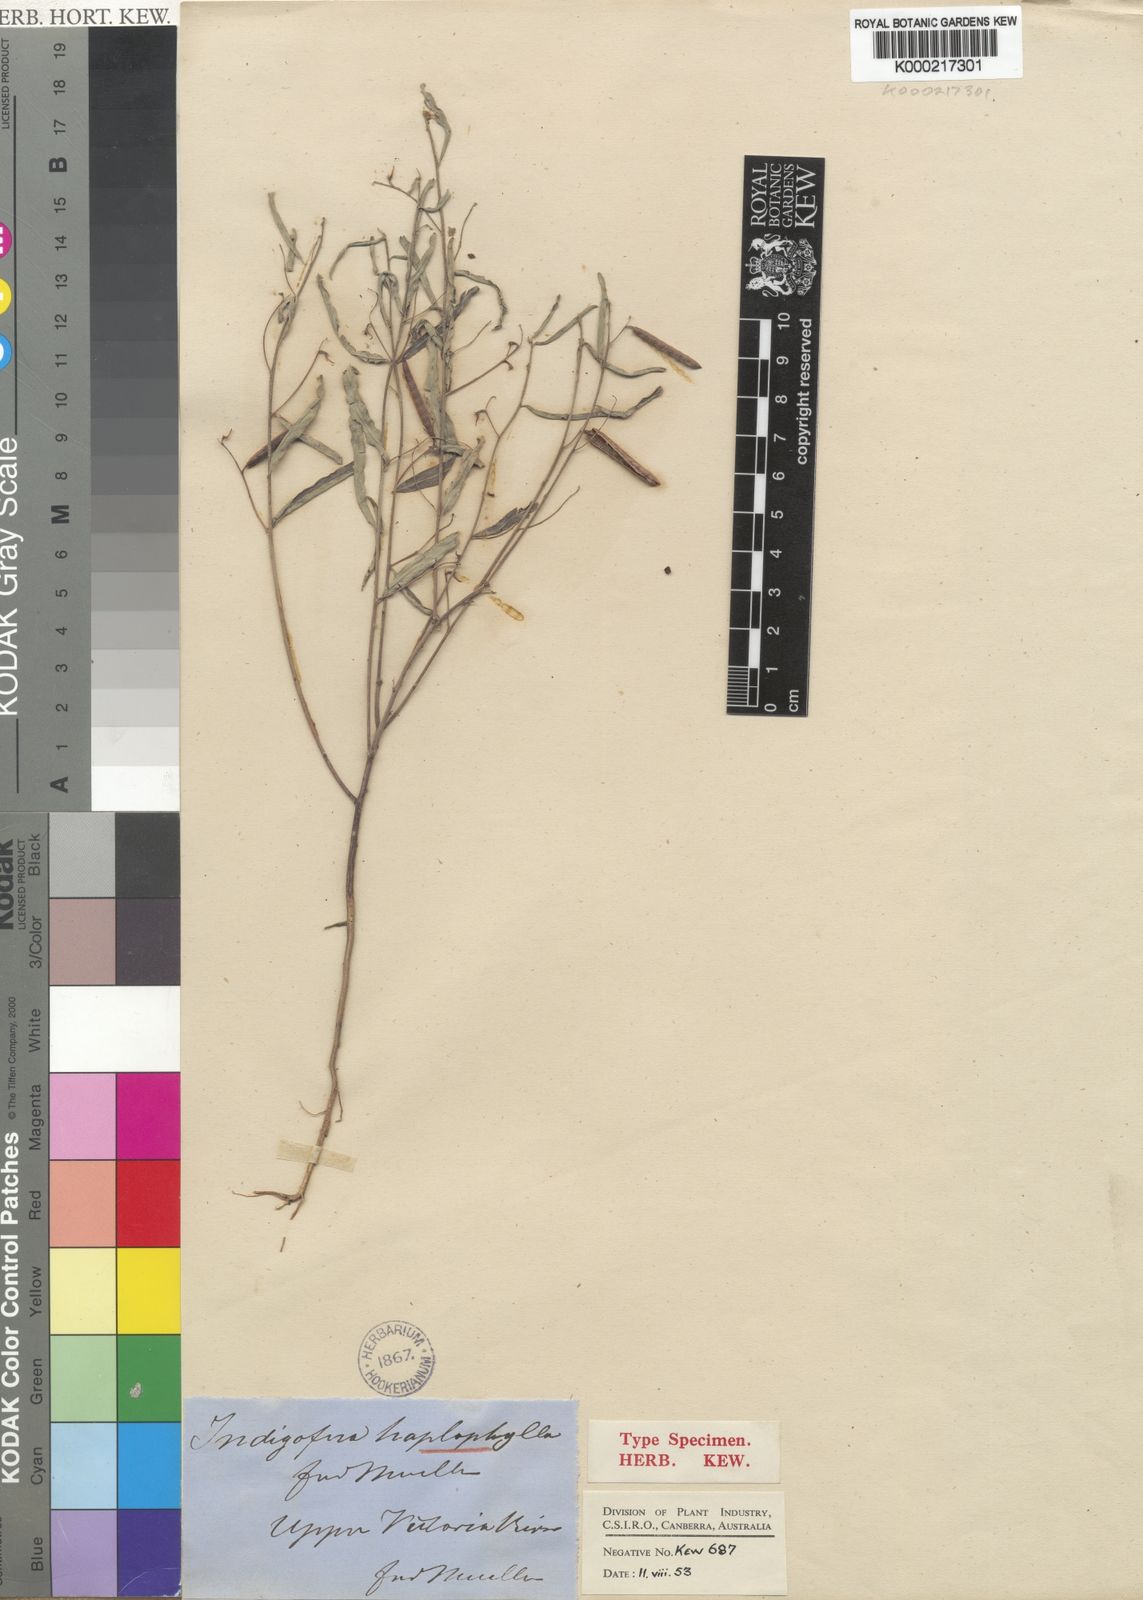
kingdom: Plantae
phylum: Tracheophyta
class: Magnoliopsida
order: Fabales
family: Fabaceae
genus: Indigofera
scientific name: Indigofera haplophylla
